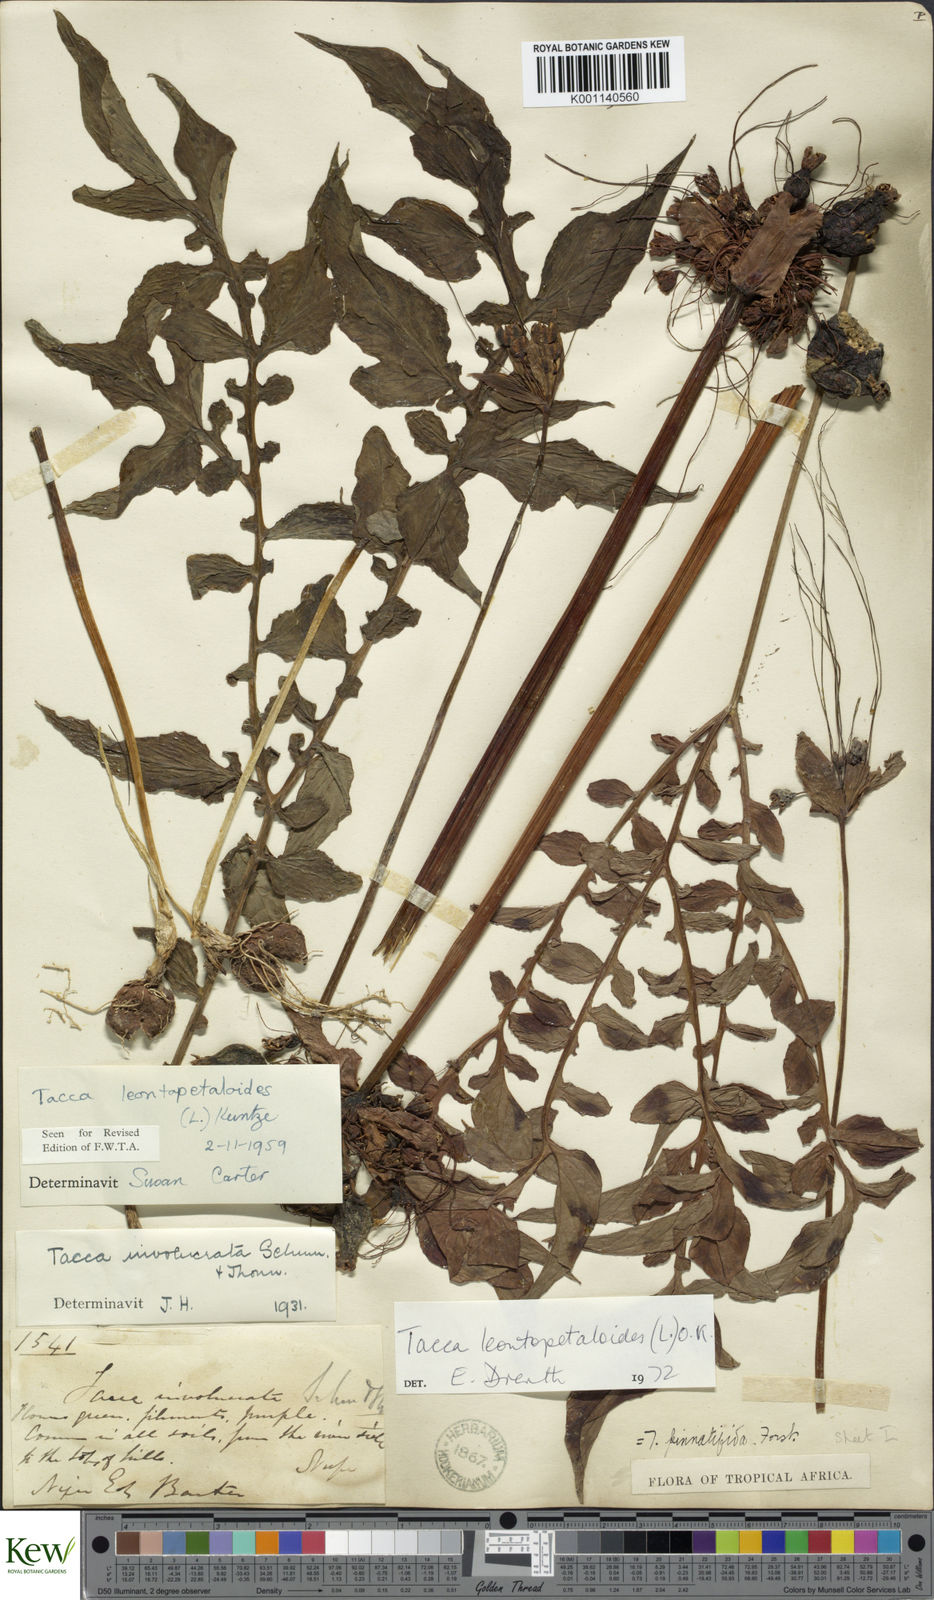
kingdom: Plantae
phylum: Tracheophyta
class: Liliopsida
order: Dioscoreales
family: Dioscoreaceae
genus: Tacca
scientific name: Tacca leontopetaloides
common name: Arrowroot
